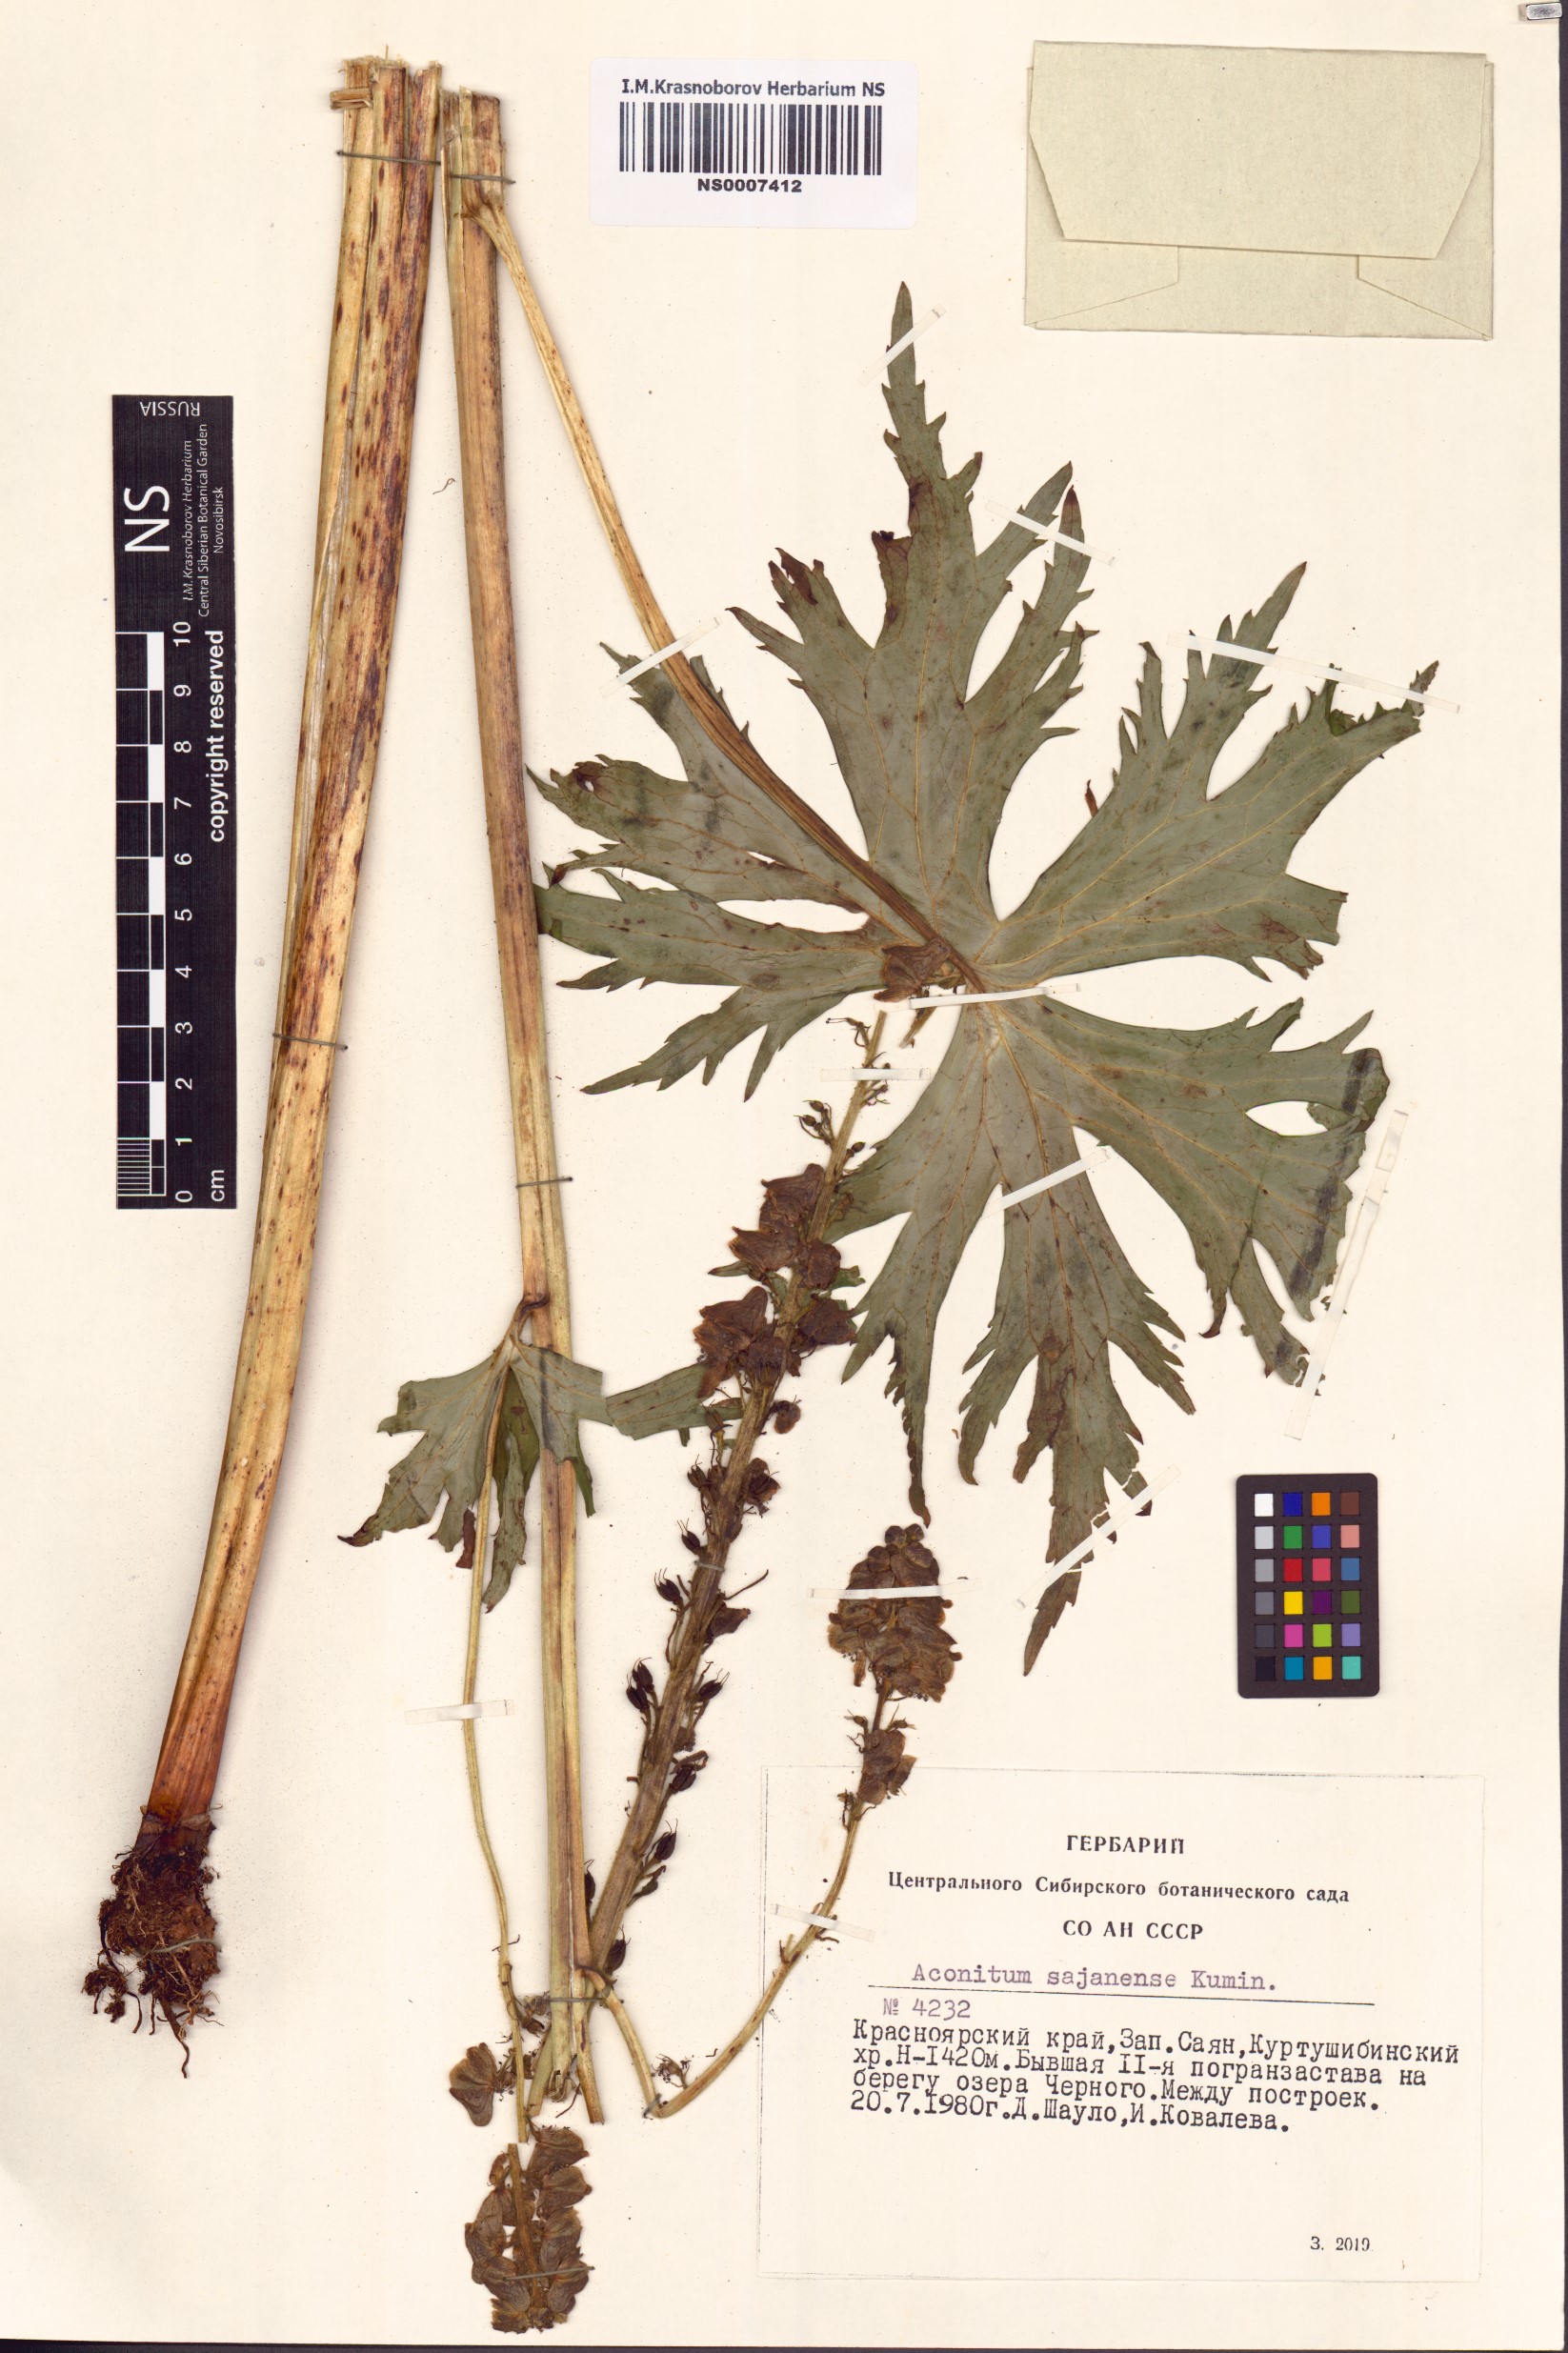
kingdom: Plantae
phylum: Tracheophyta
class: Magnoliopsida
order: Ranunculales
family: Ranunculaceae
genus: Aconitum
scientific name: Aconitum sajanense
